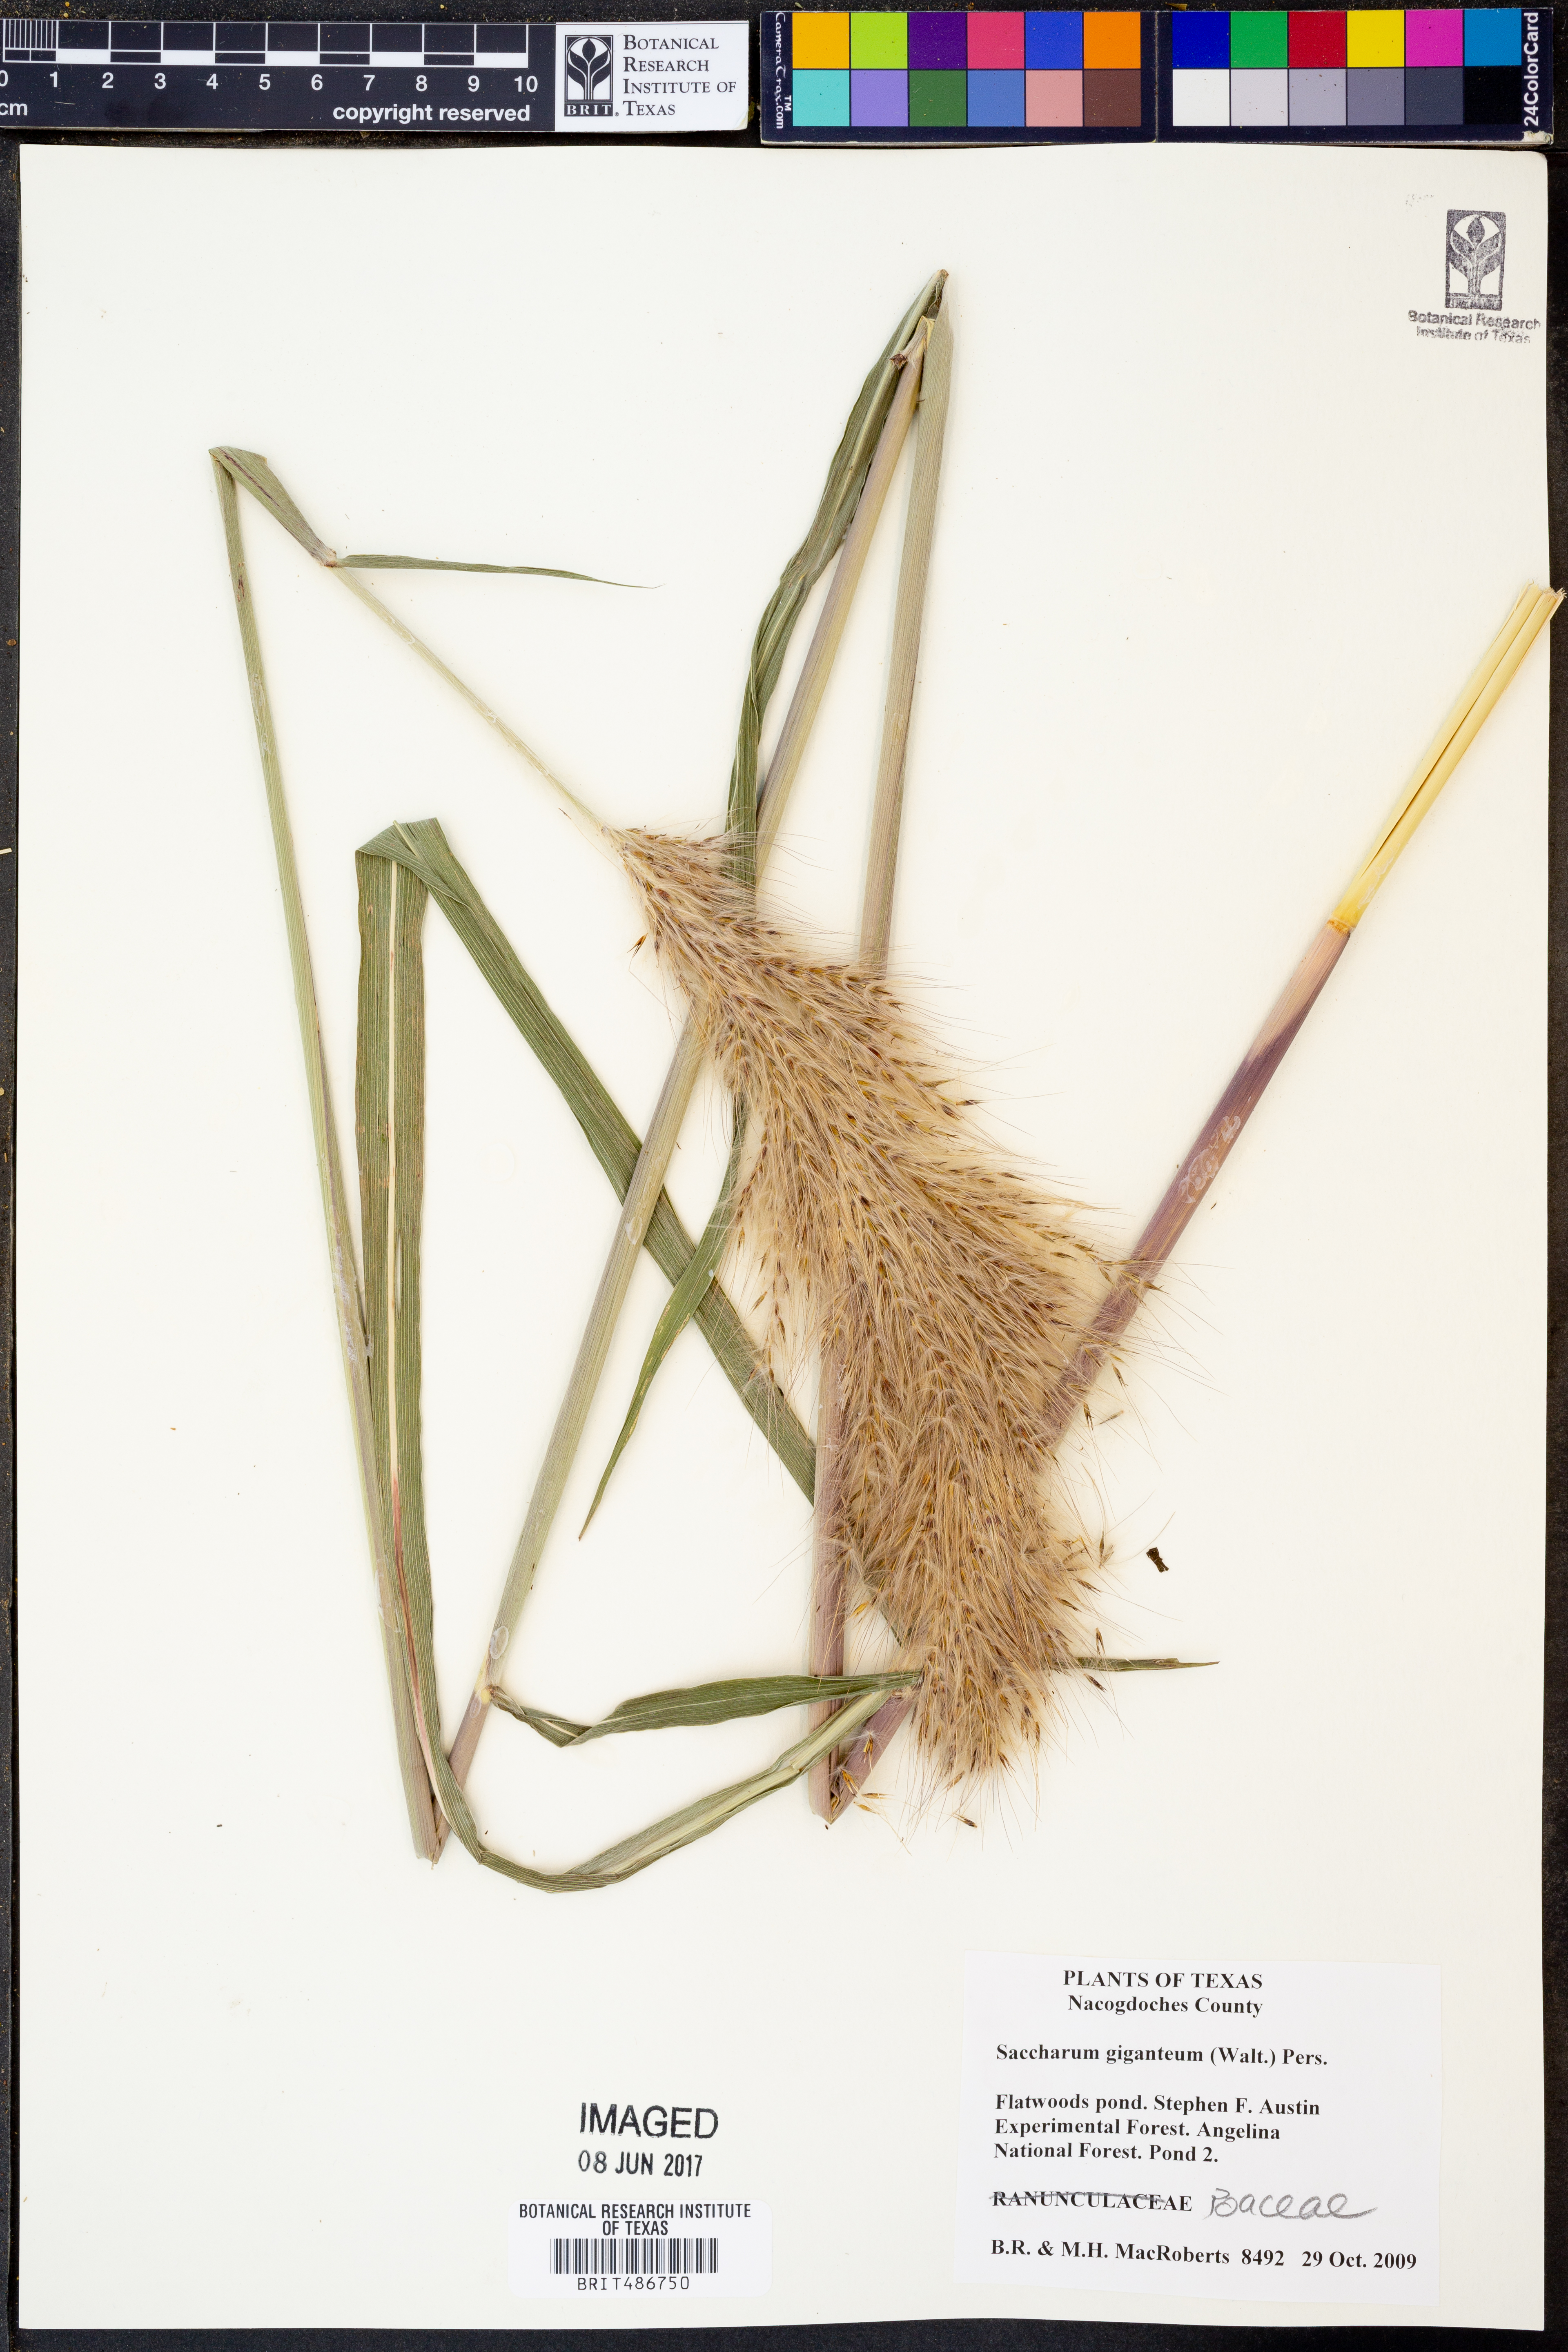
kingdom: Plantae
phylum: Tracheophyta
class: Liliopsida
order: Poales
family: Poaceae
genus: Erianthus
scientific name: Erianthus giganteus
